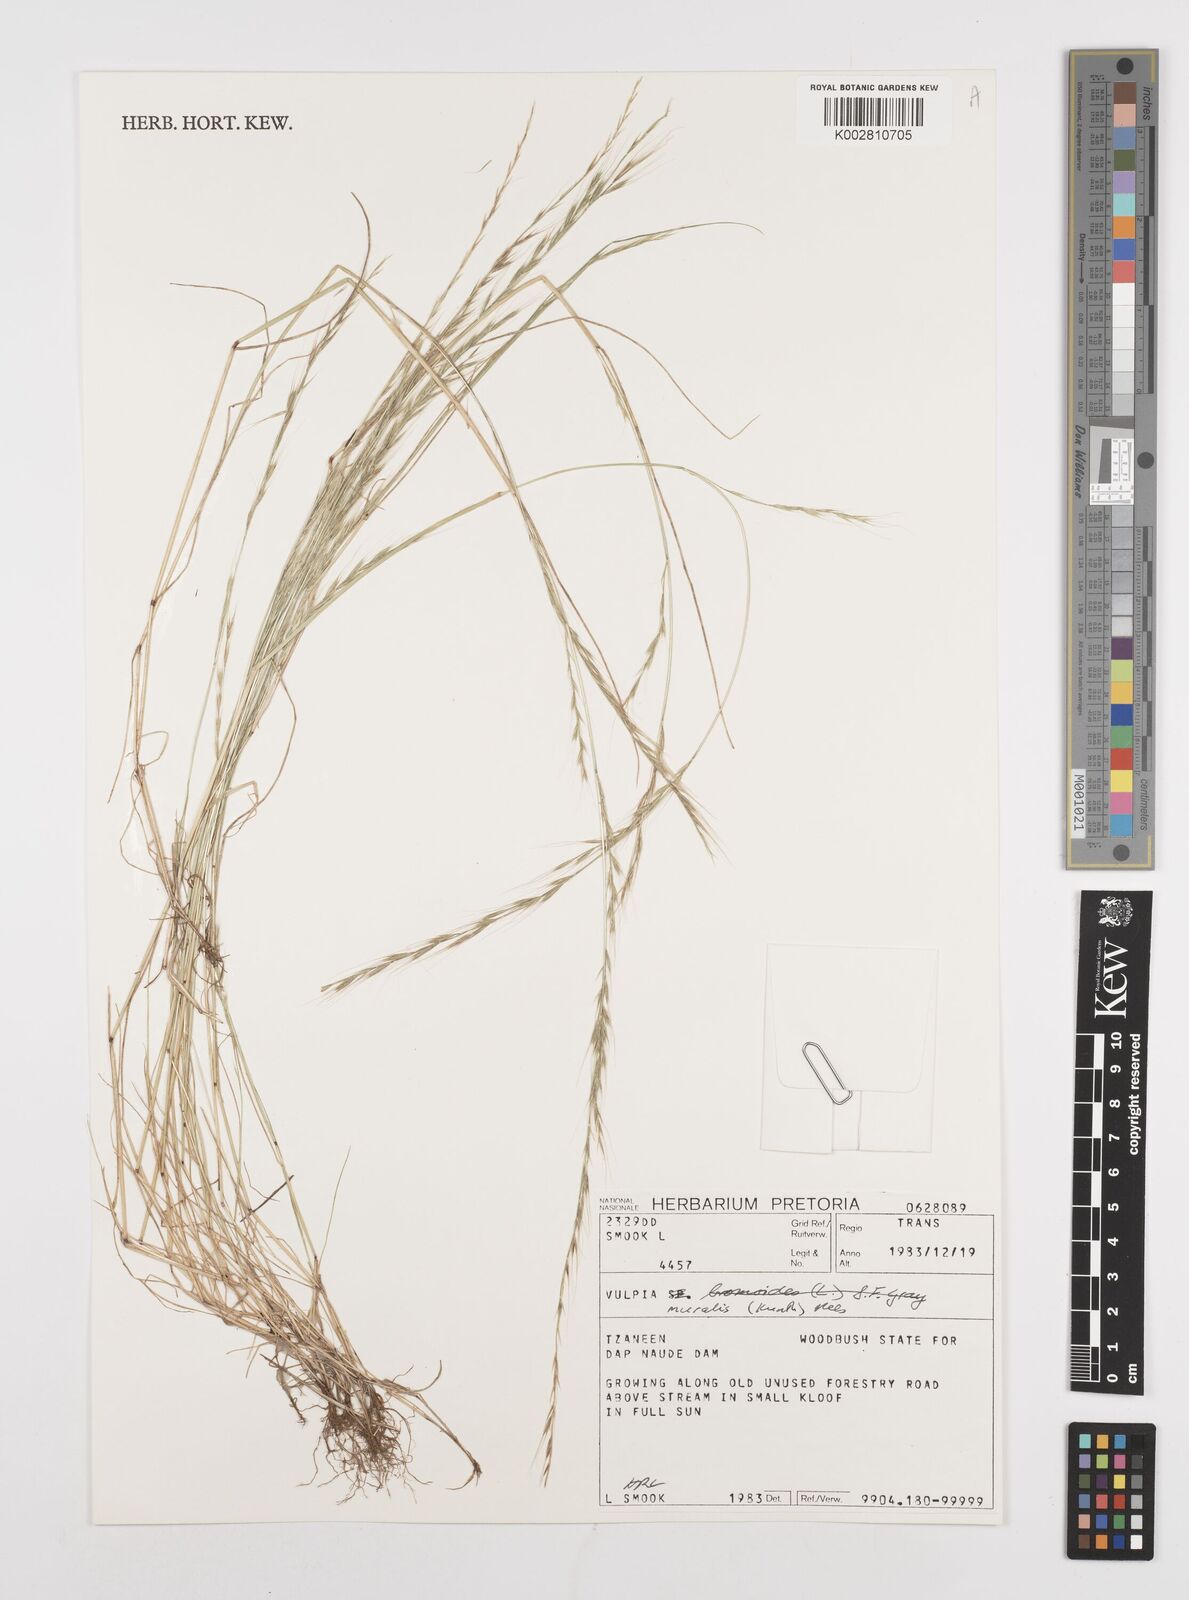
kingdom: Plantae
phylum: Tracheophyta
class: Liliopsida
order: Poales
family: Poaceae
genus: Festuca
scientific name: Festuca muralis
